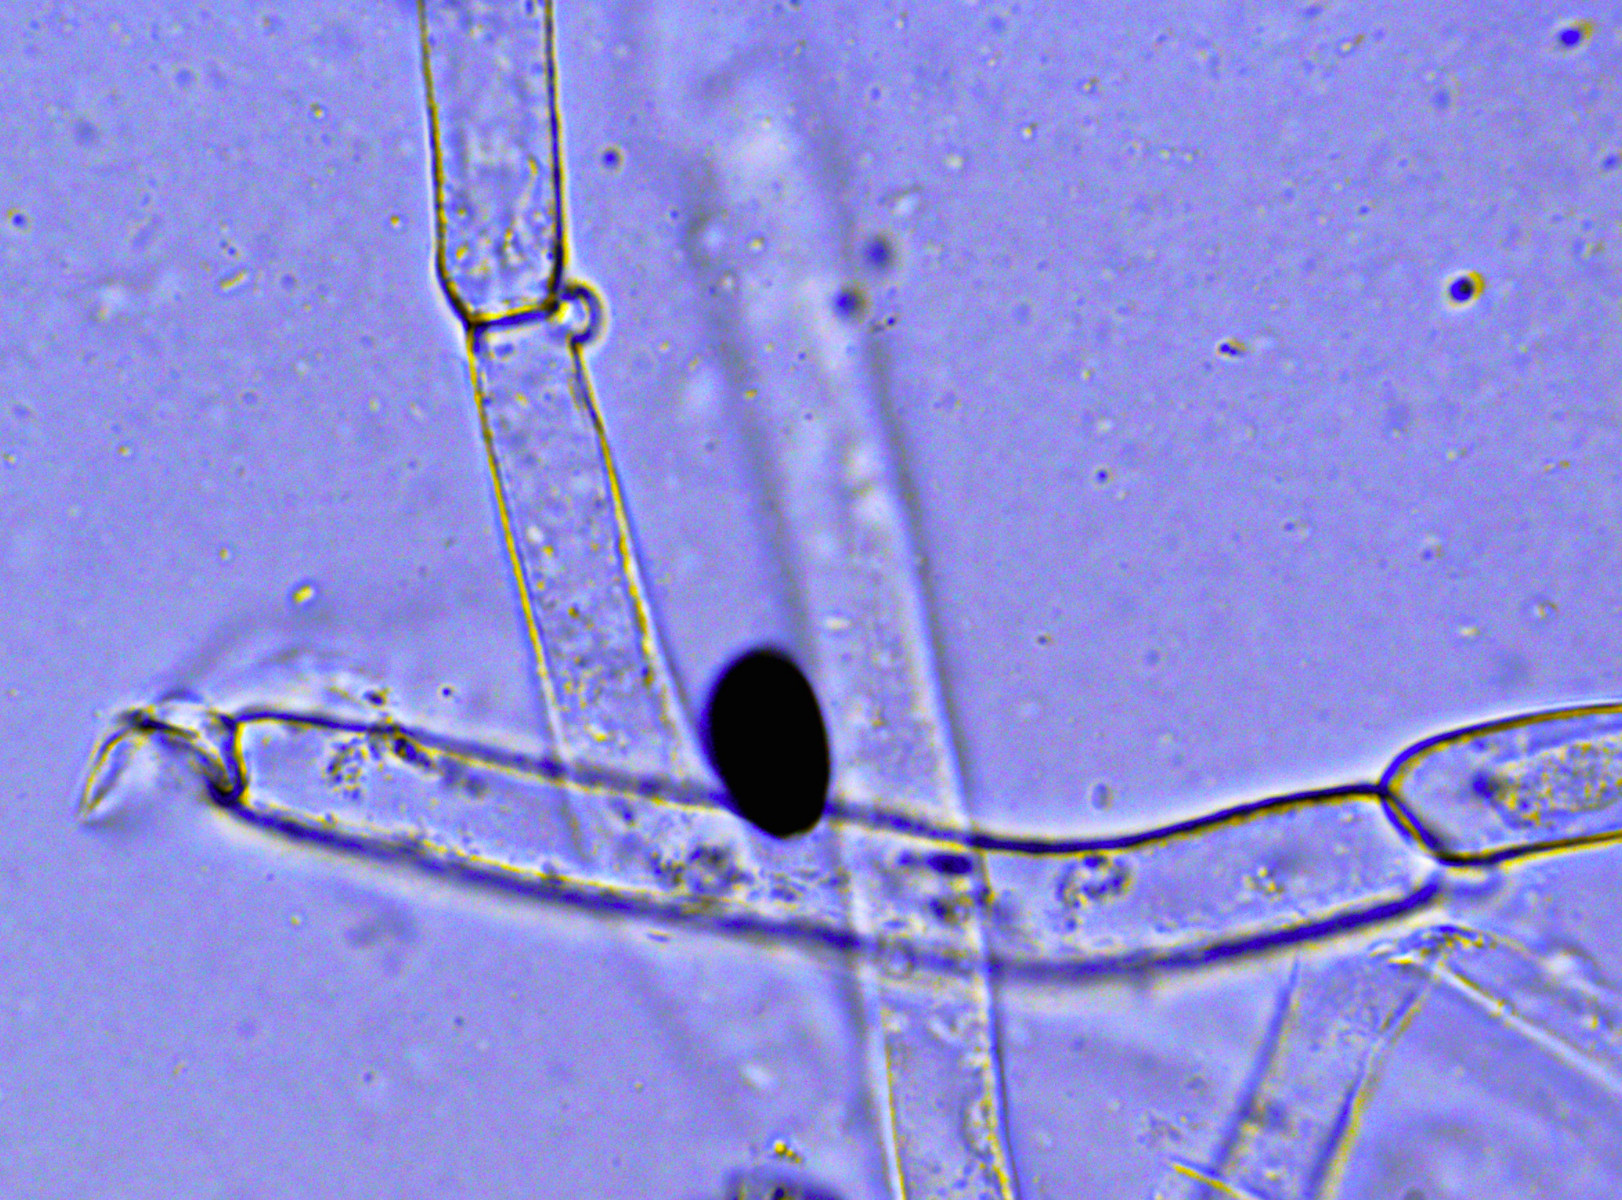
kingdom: Fungi
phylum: Basidiomycota
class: Agaricomycetes
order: Agaricales
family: Bolbitiaceae
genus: Conocybe
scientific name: Conocybe inocybeoides
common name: knold-keglehat
